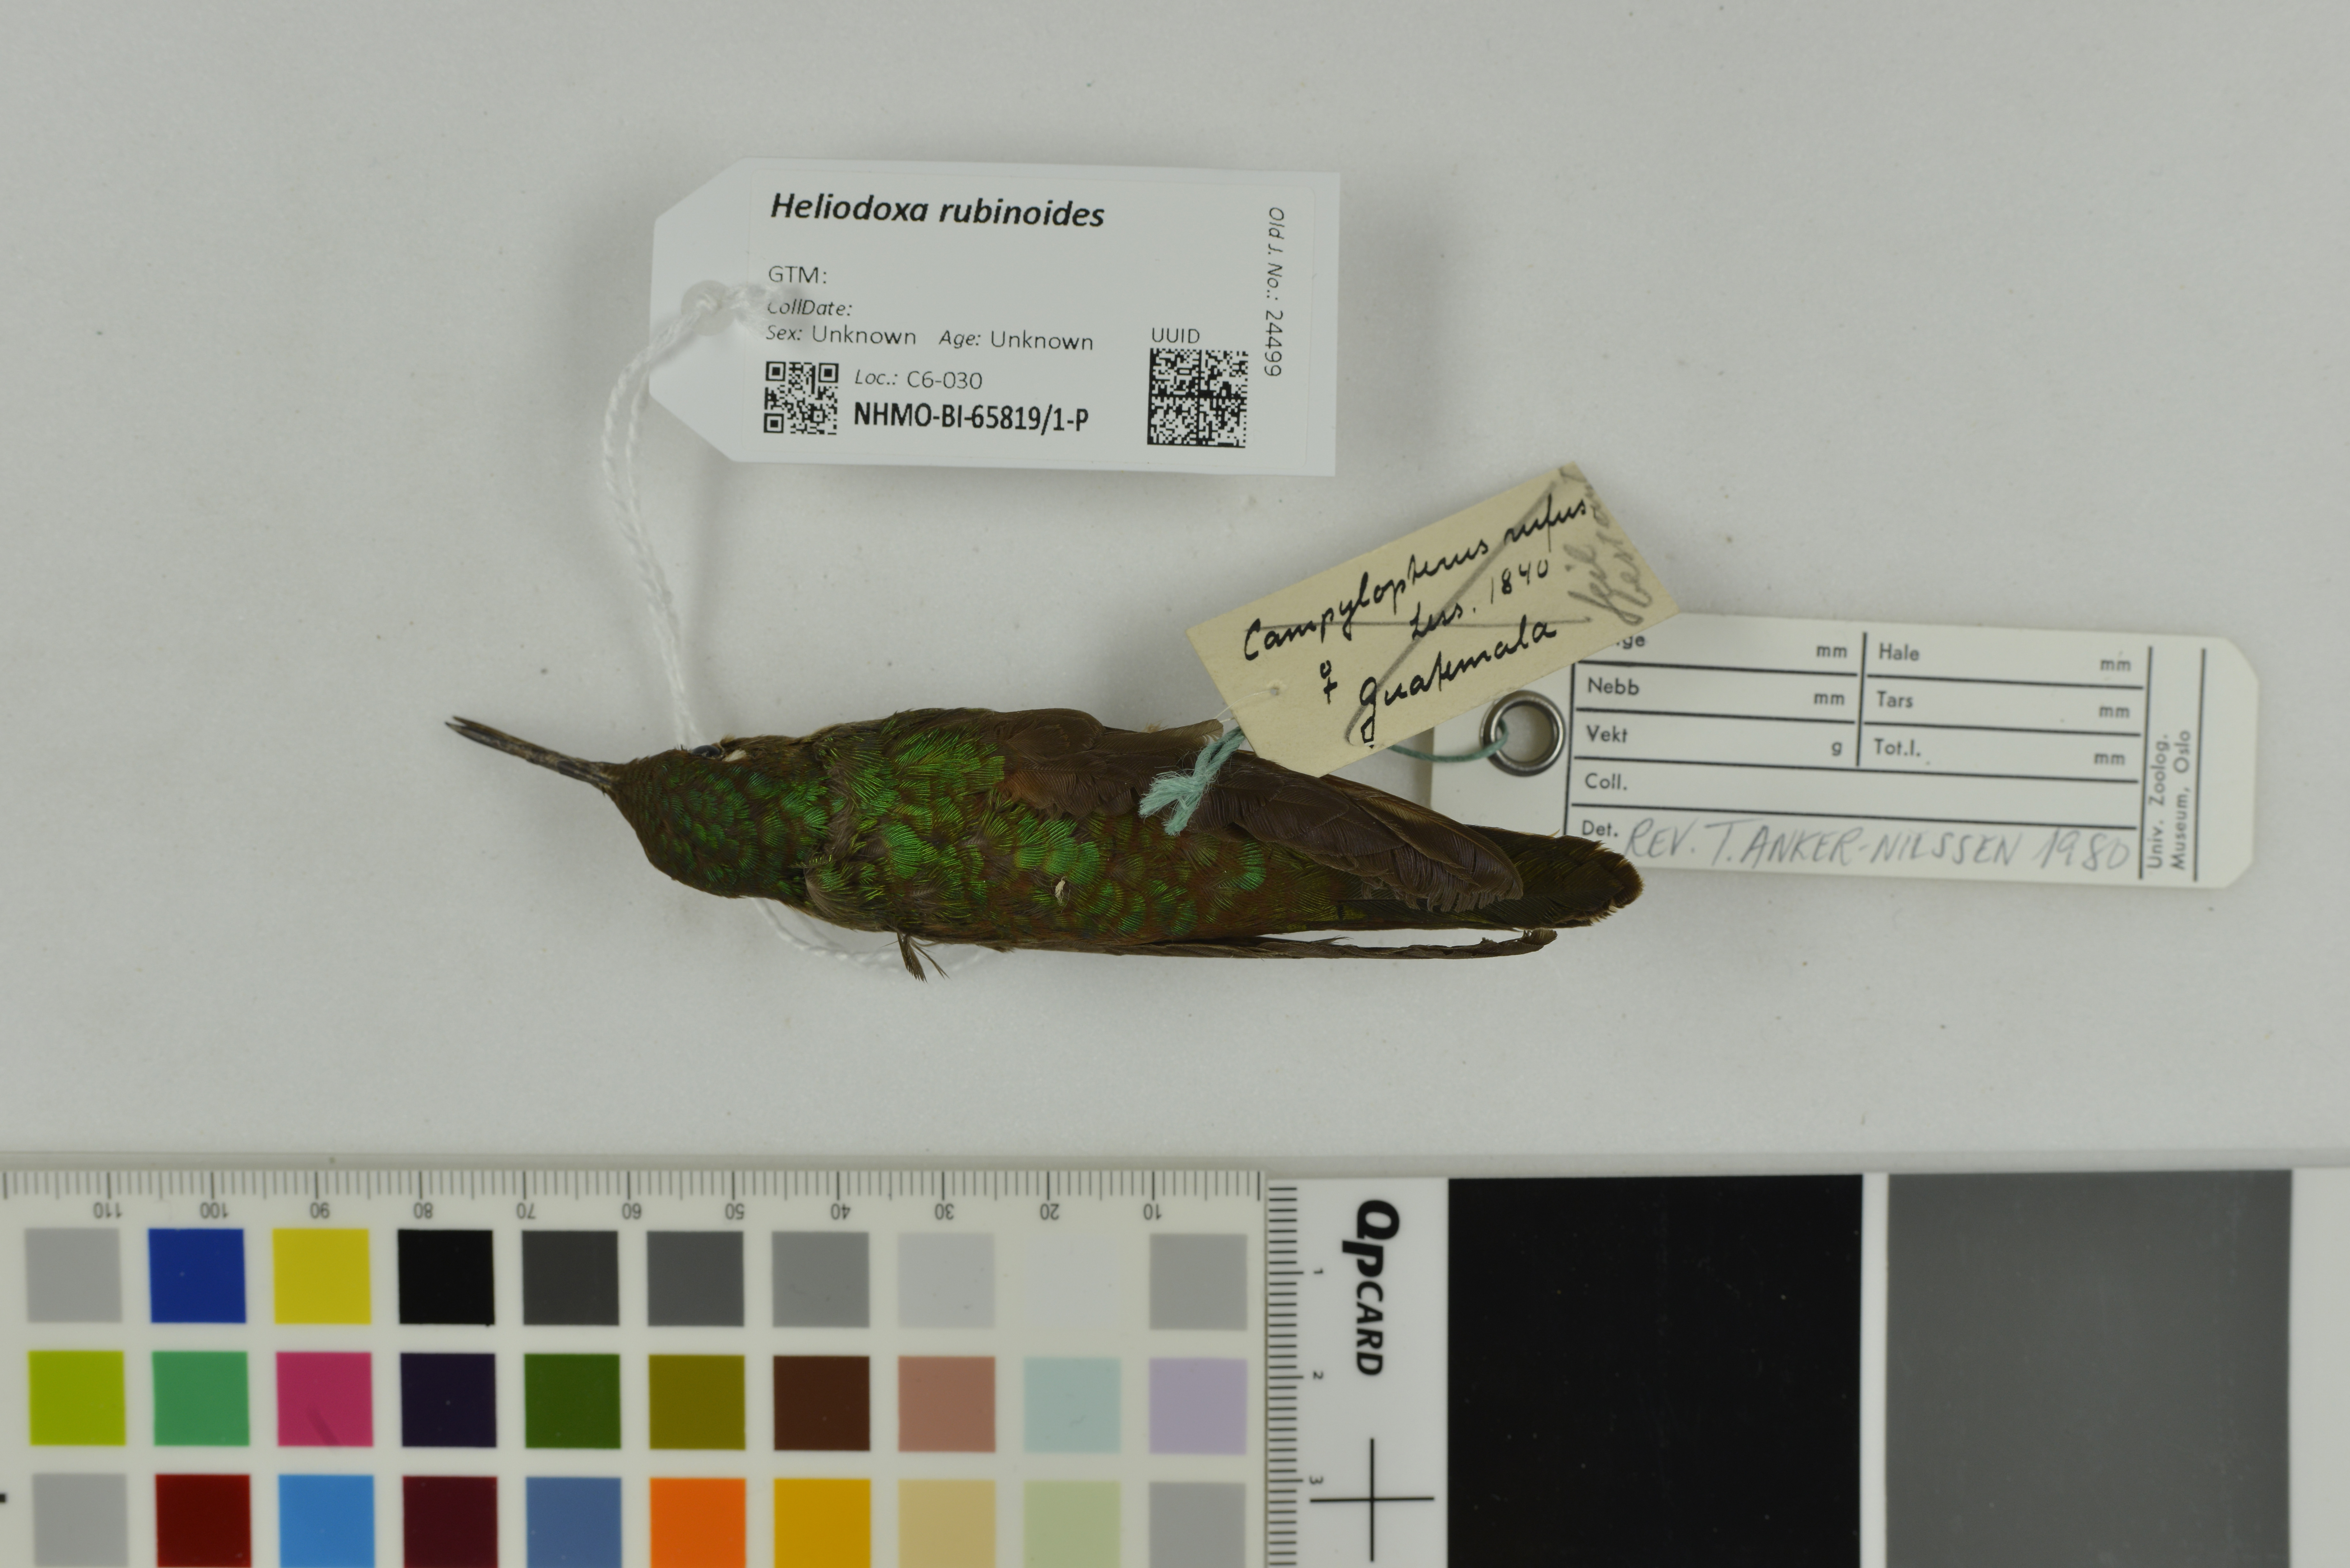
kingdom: Animalia
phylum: Chordata
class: Aves
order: Apodiformes
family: Trochilidae
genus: Heliodoxa
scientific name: Heliodoxa rubinoides
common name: Fawn-breasted brilliant
